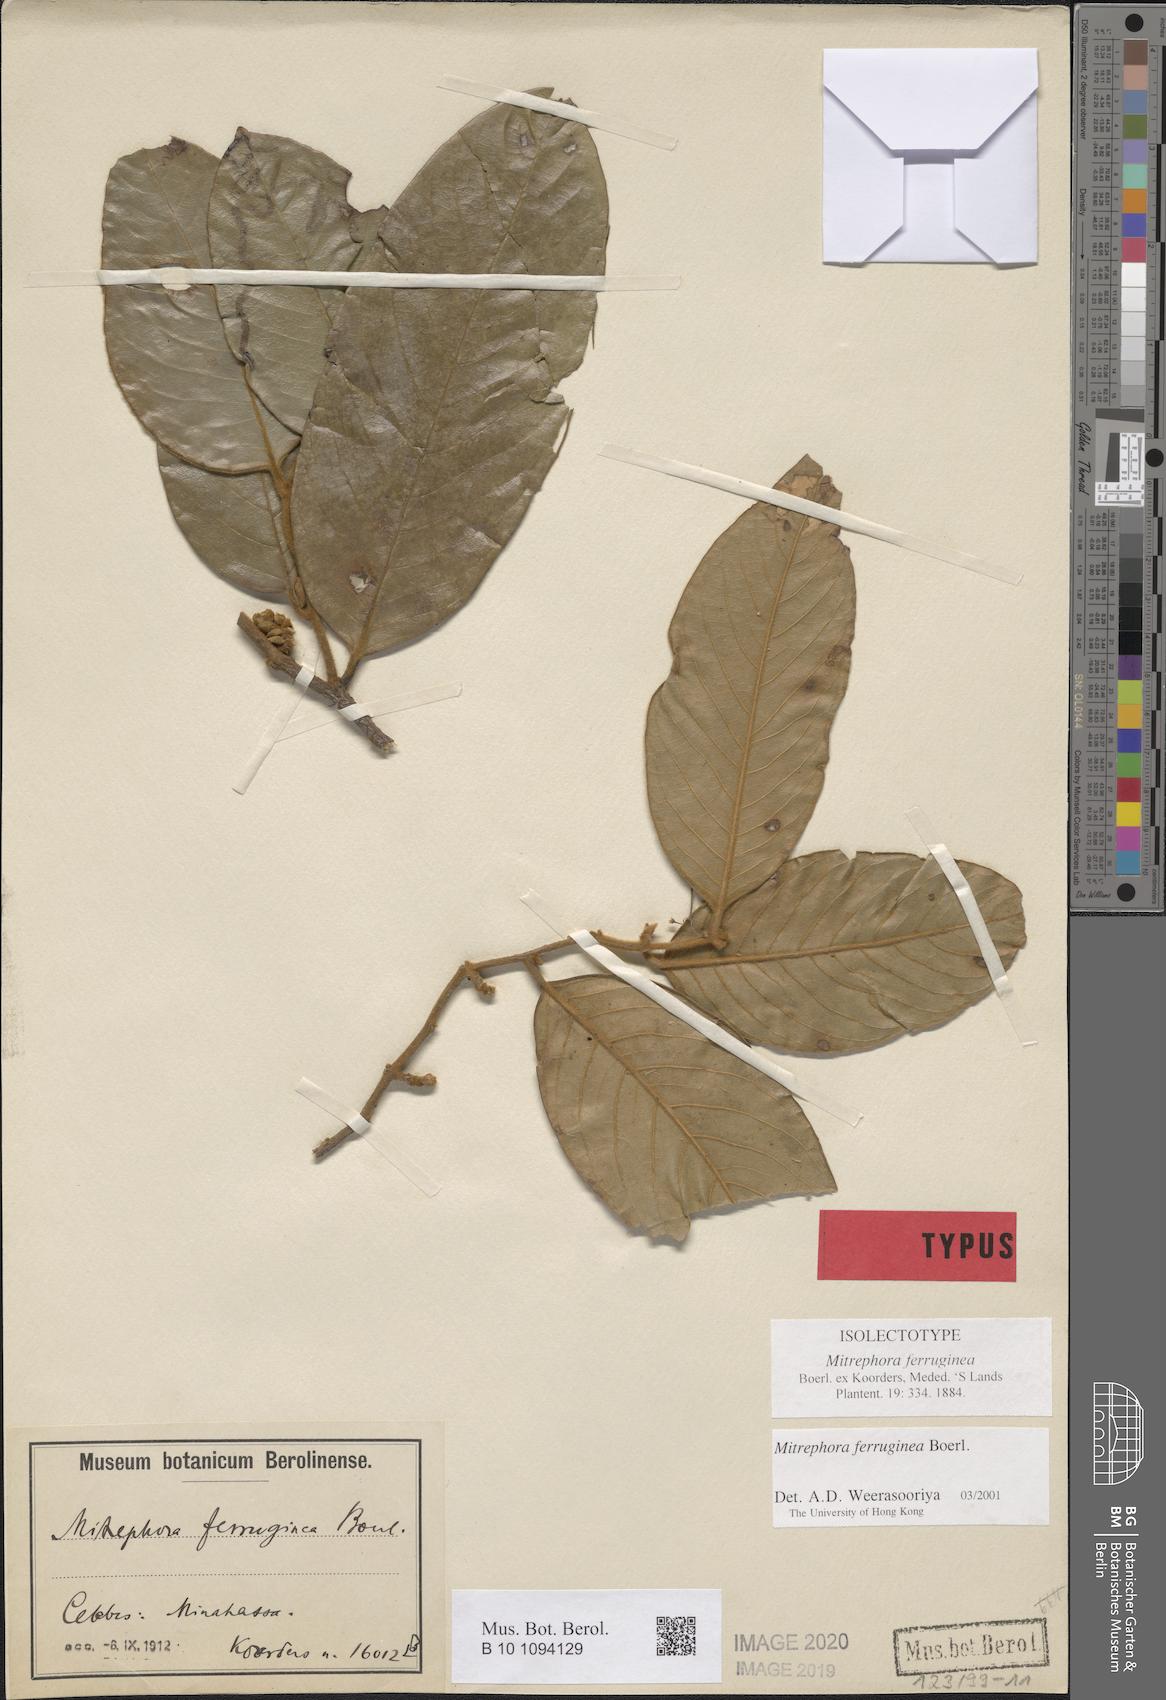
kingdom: Plantae
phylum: Tracheophyta
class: Magnoliopsida
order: Magnoliales
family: Annonaceae
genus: Mitrephora
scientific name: Mitrephora ferruginea
